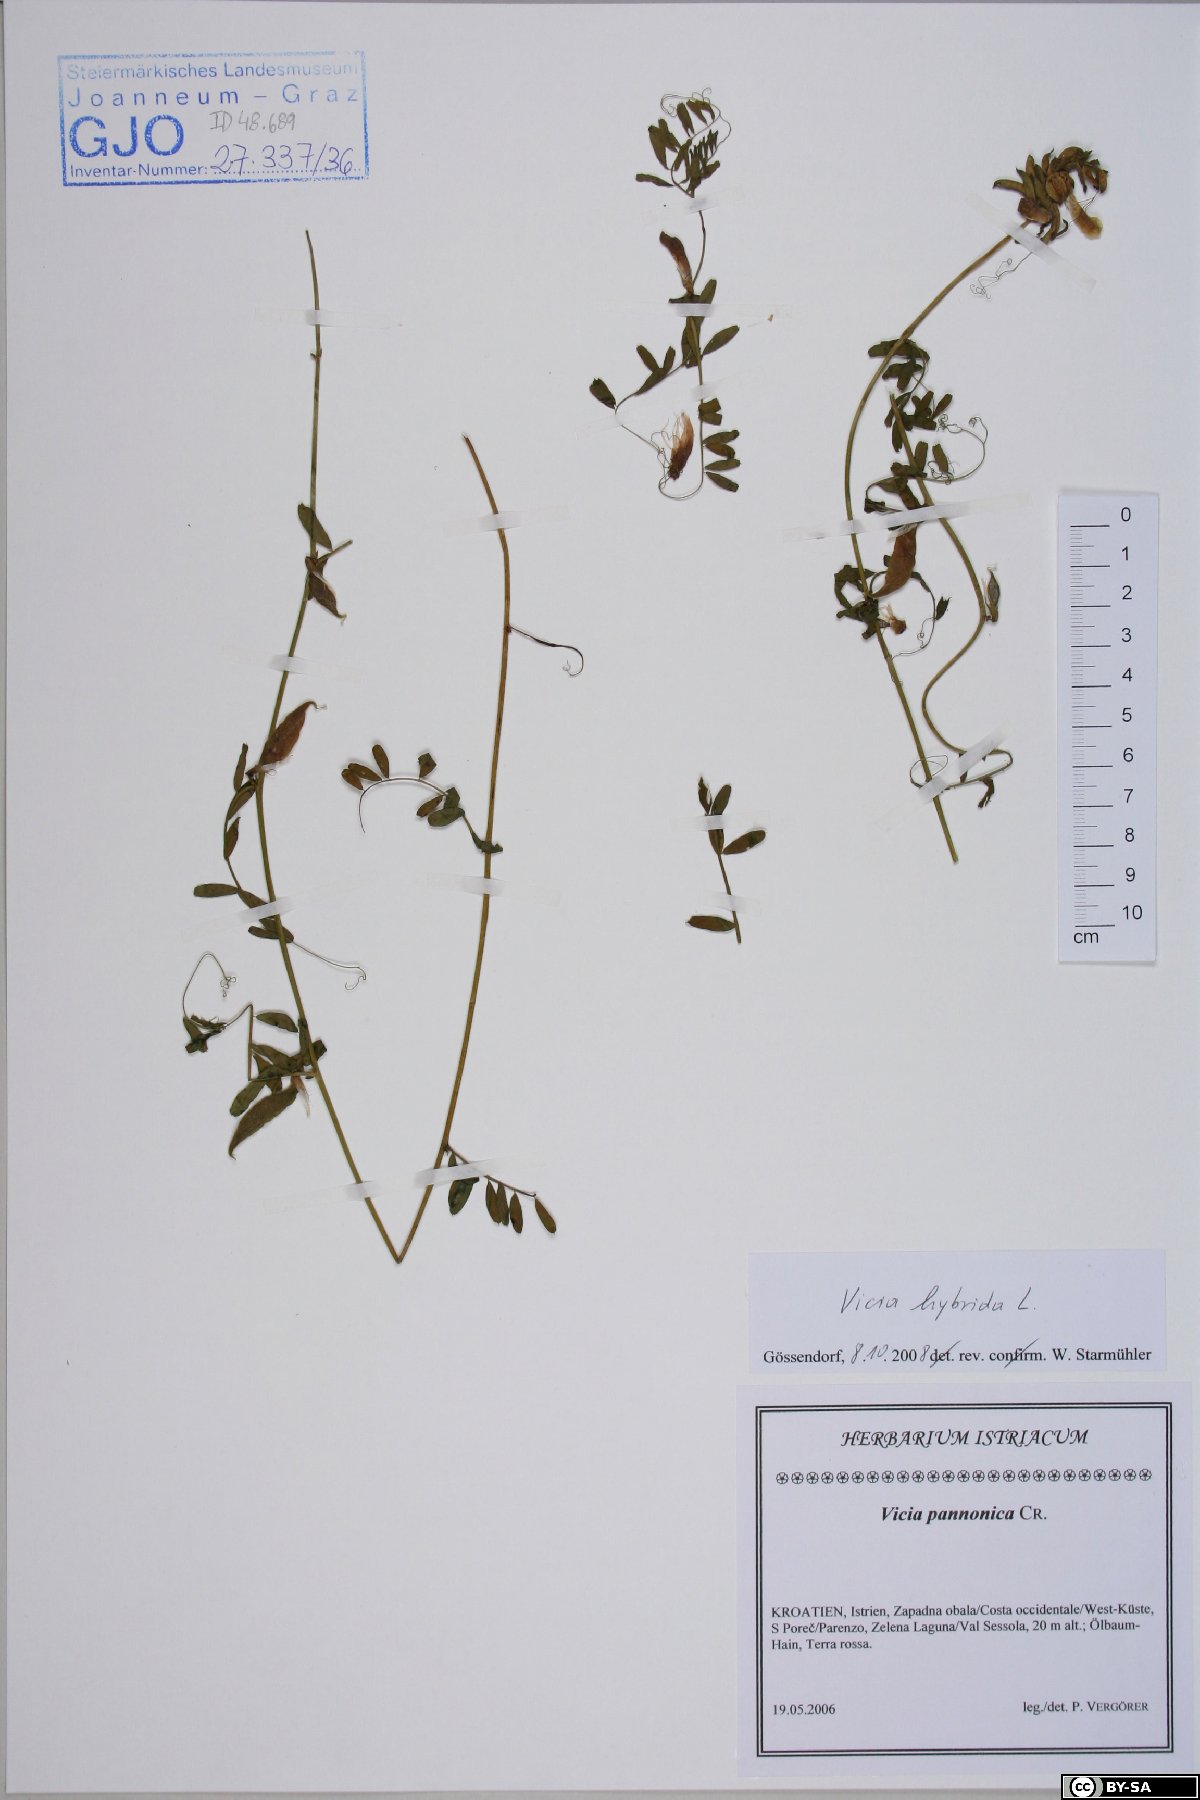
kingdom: Plantae
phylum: Tracheophyta
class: Magnoliopsida
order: Fabales
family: Fabaceae
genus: Vicia
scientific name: Vicia hybrida
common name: Hairy yellow vetch
